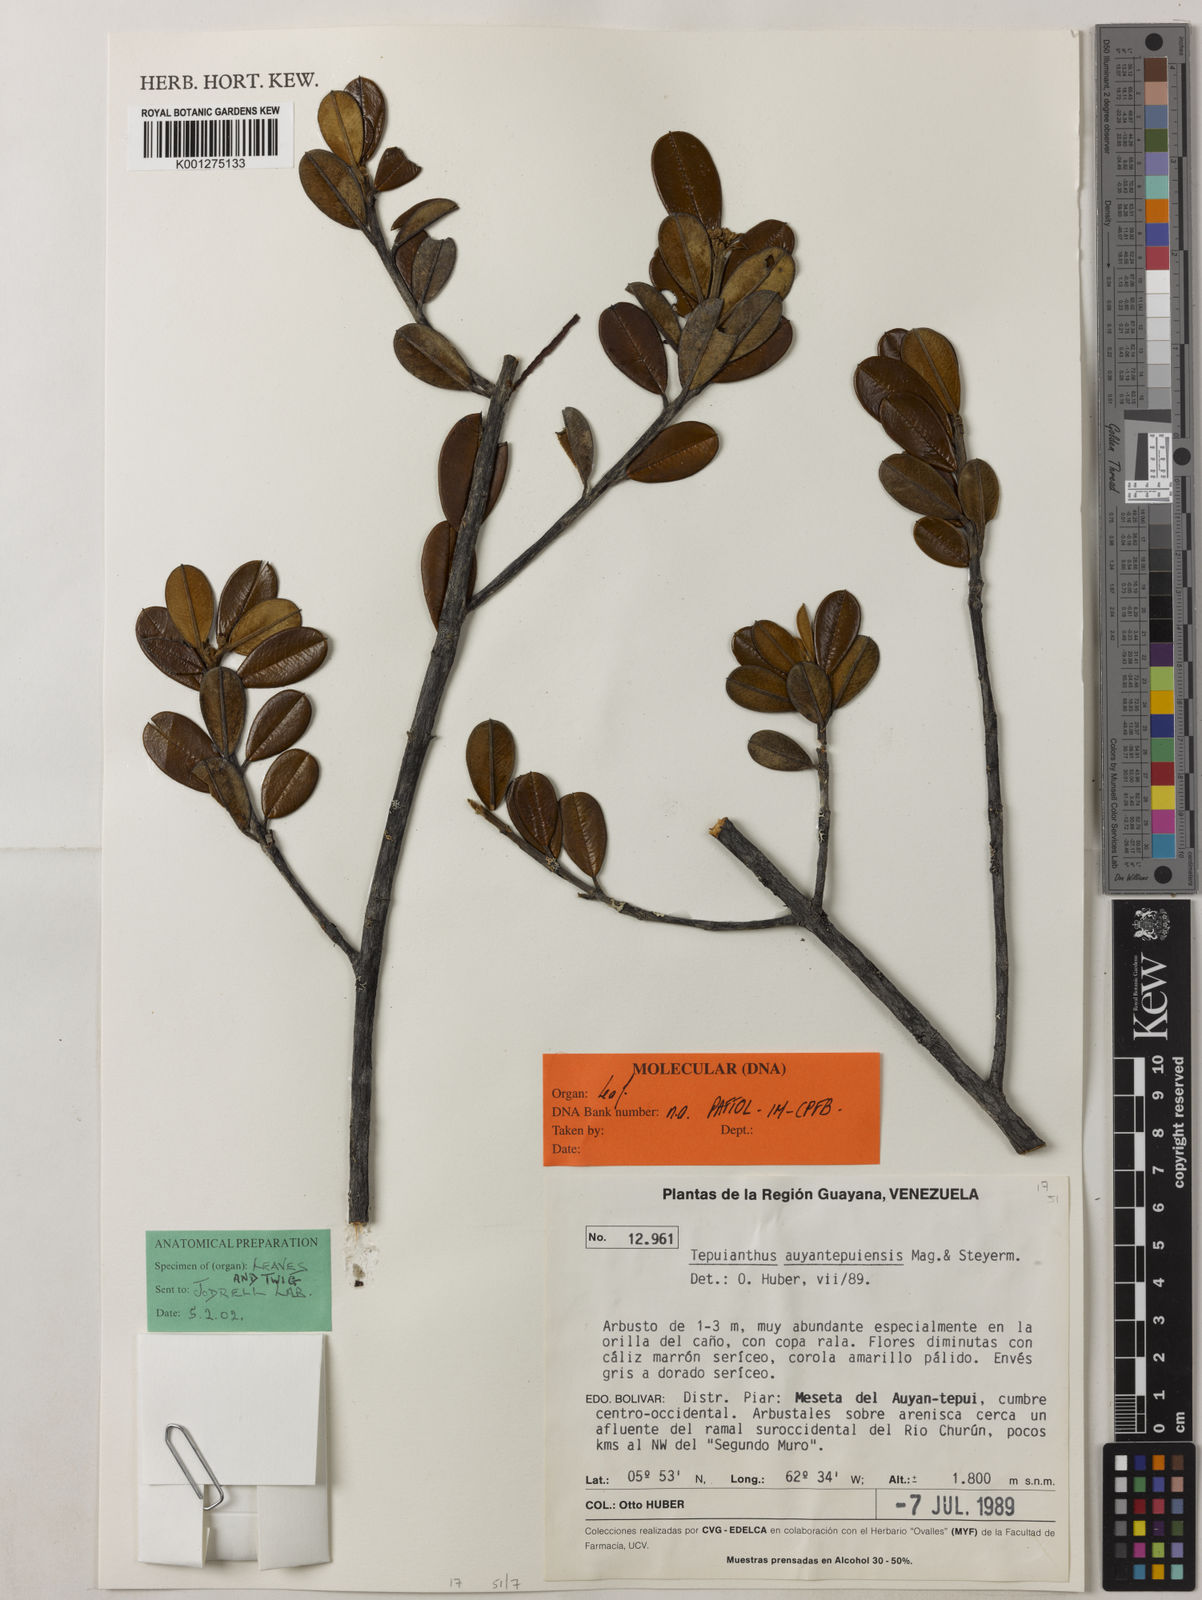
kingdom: Plantae
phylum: Tracheophyta
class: Magnoliopsida
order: Malvales
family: Thymelaeaceae
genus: Tepuianthus
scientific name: Tepuianthus auyantepuiensis
